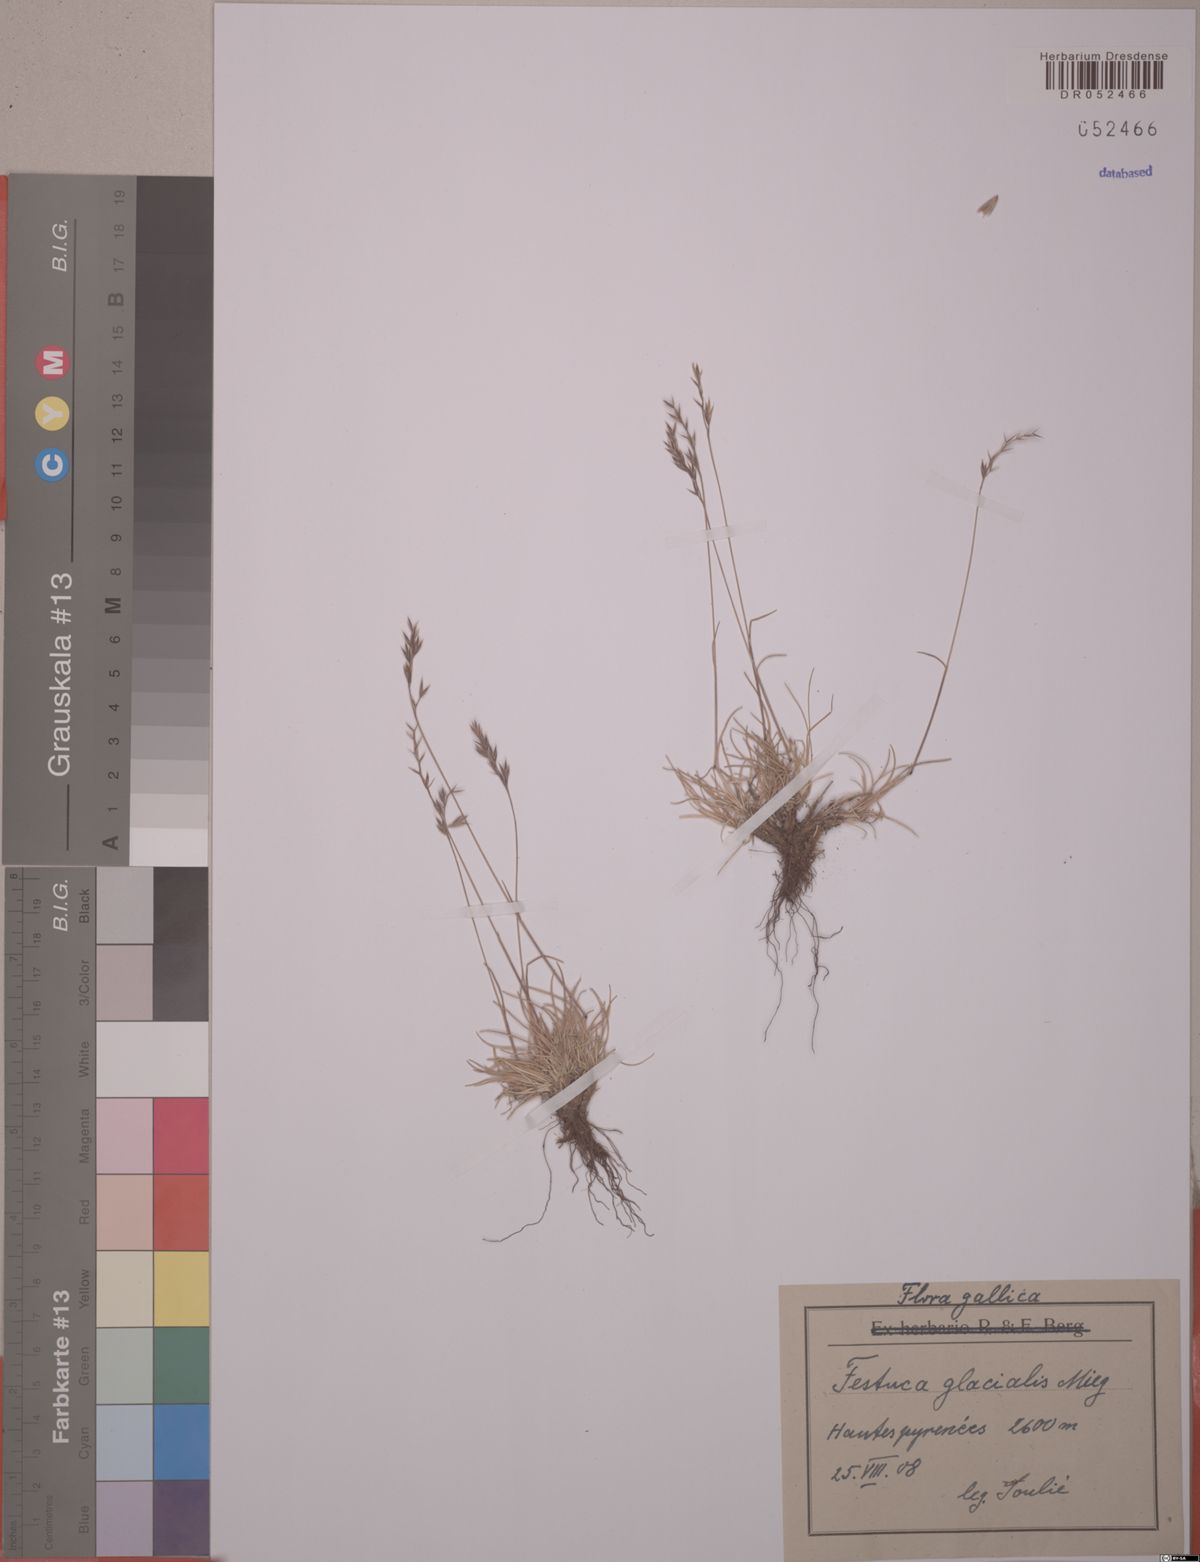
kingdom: Plantae
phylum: Tracheophyta
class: Liliopsida
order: Poales
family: Poaceae
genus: Festuca
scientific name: Festuca glacialis
